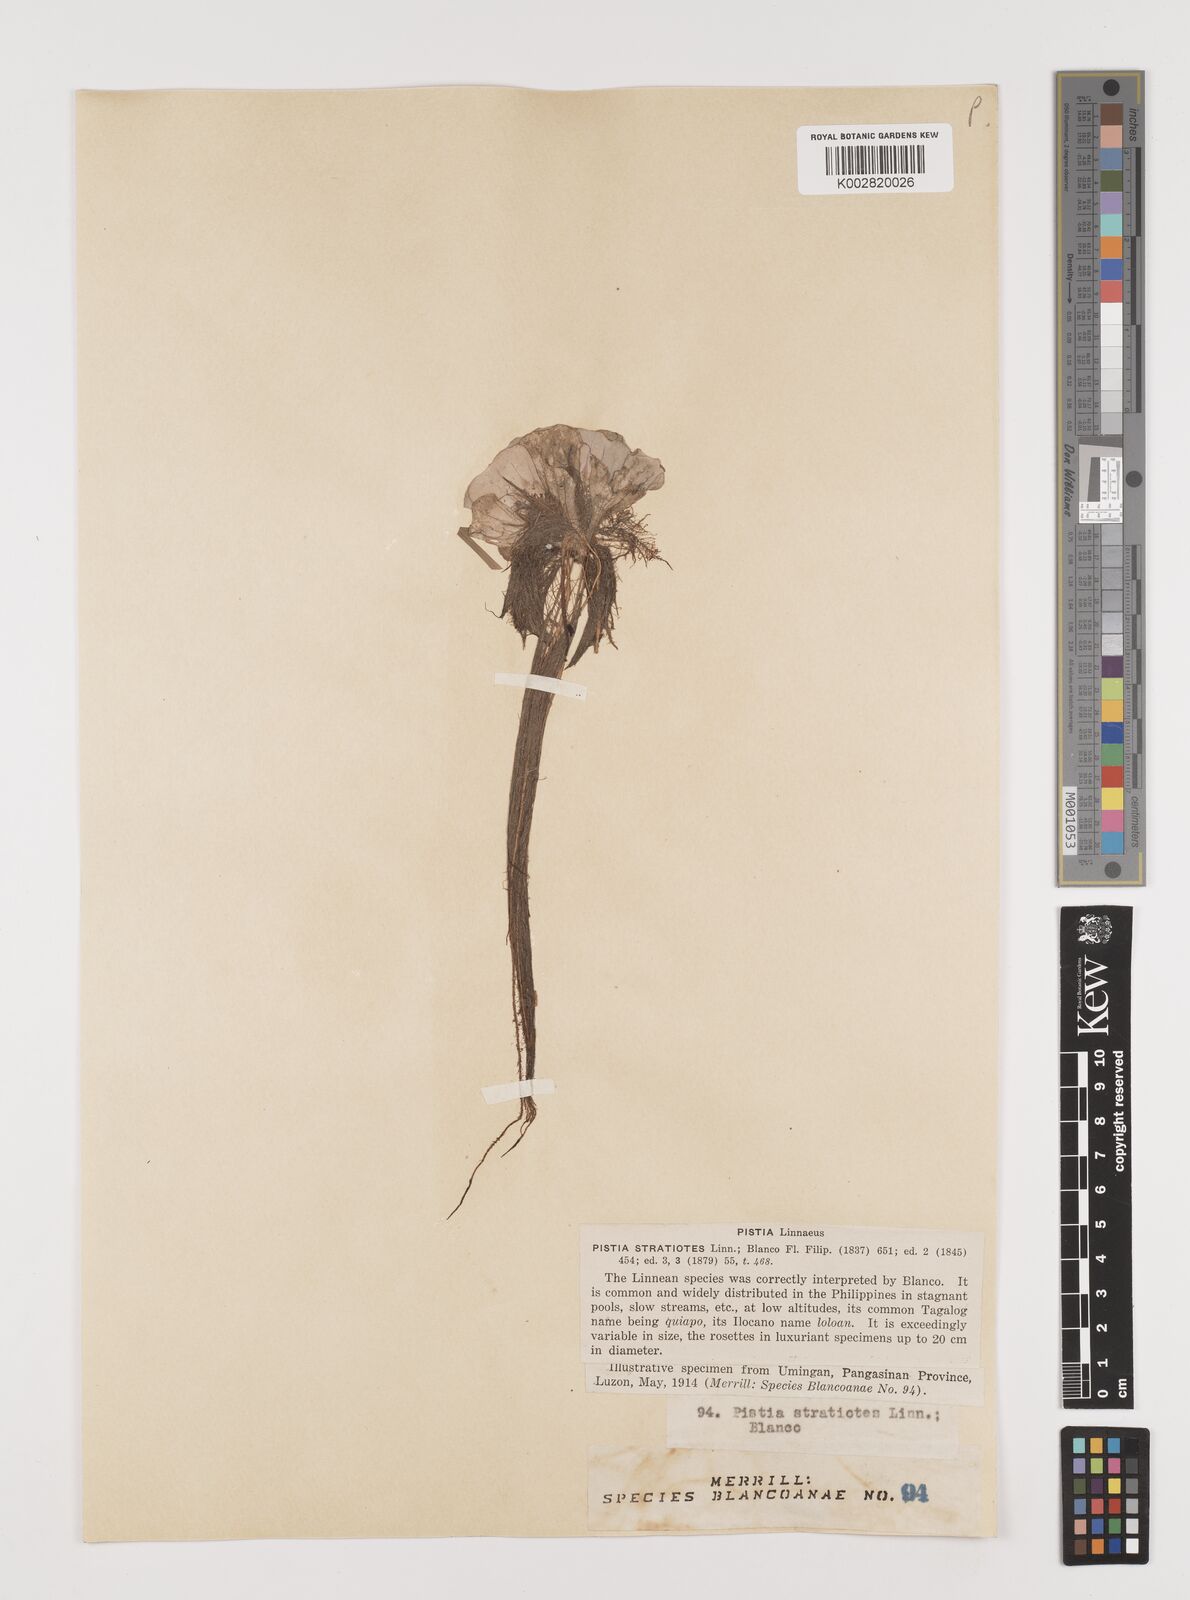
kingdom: Plantae
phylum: Tracheophyta
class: Liliopsida
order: Alismatales
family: Araceae
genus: Pistia
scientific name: Pistia stratiotes
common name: Water lettuce
